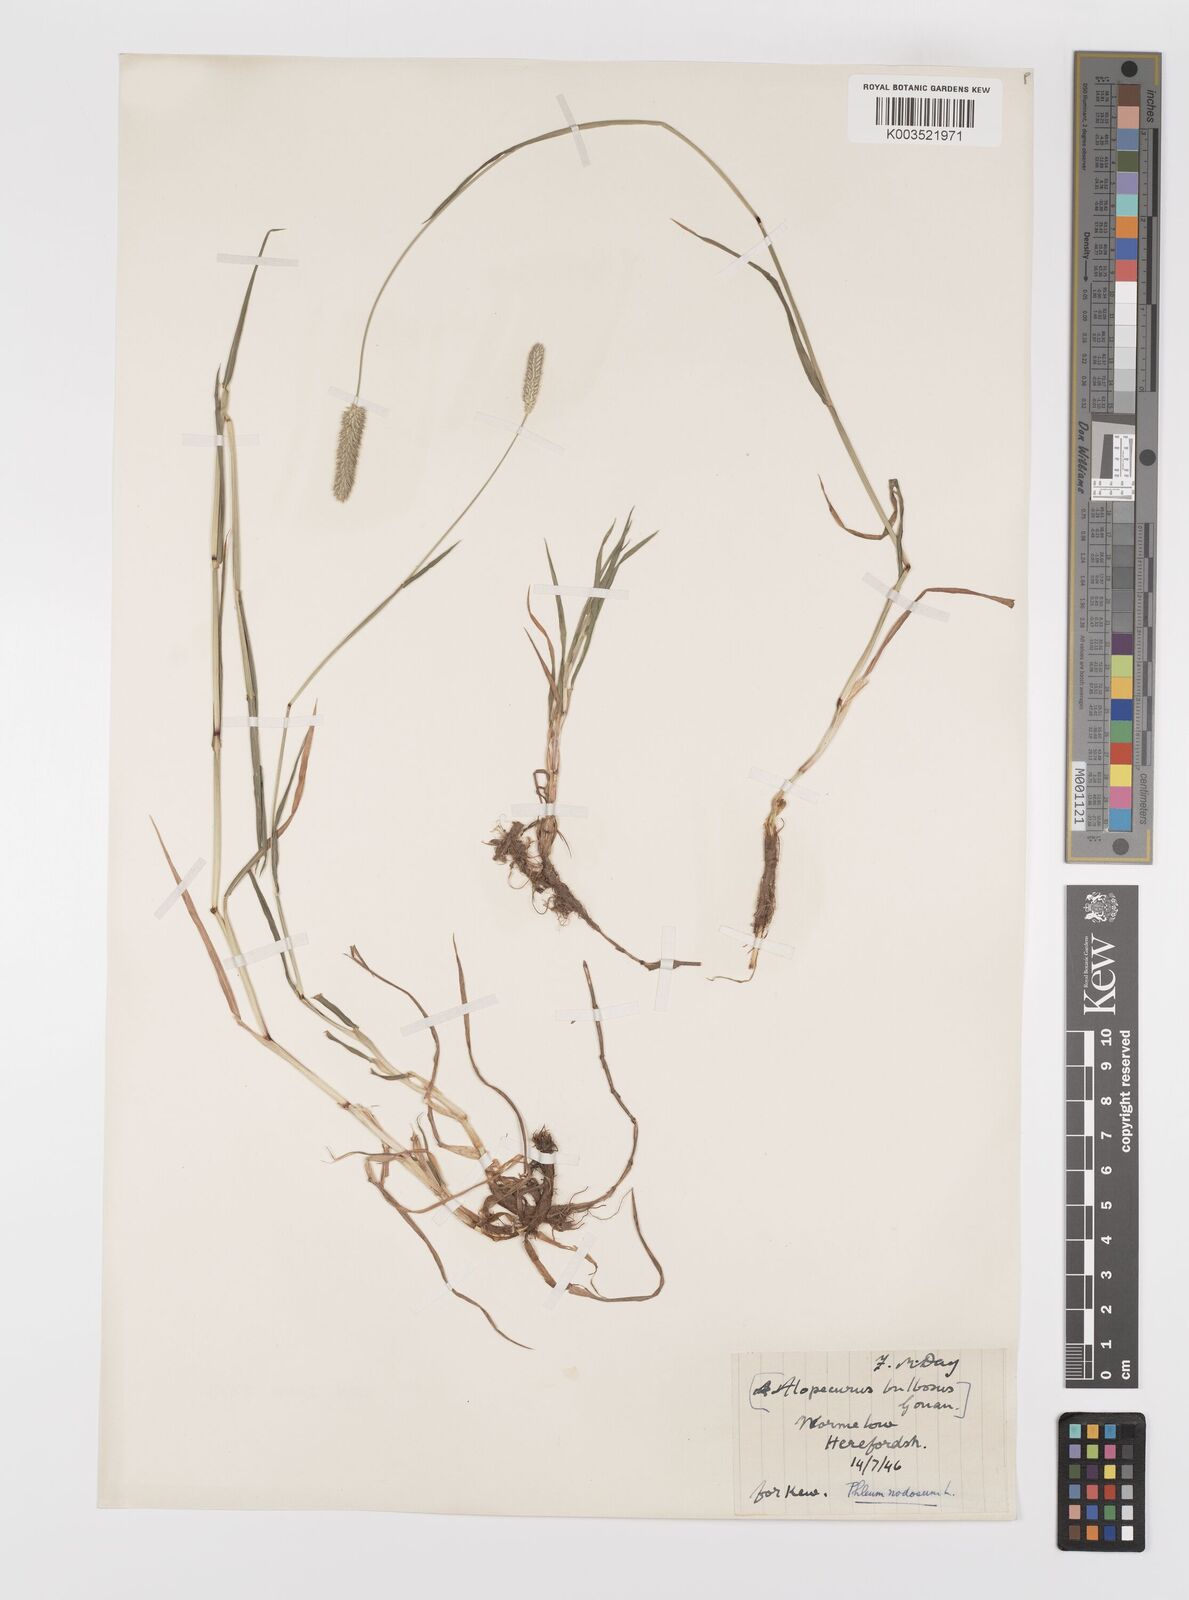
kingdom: Plantae
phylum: Tracheophyta
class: Liliopsida
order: Poales
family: Poaceae
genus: Phleum
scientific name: Phleum bertolonii
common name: Smaller cat's-tail
